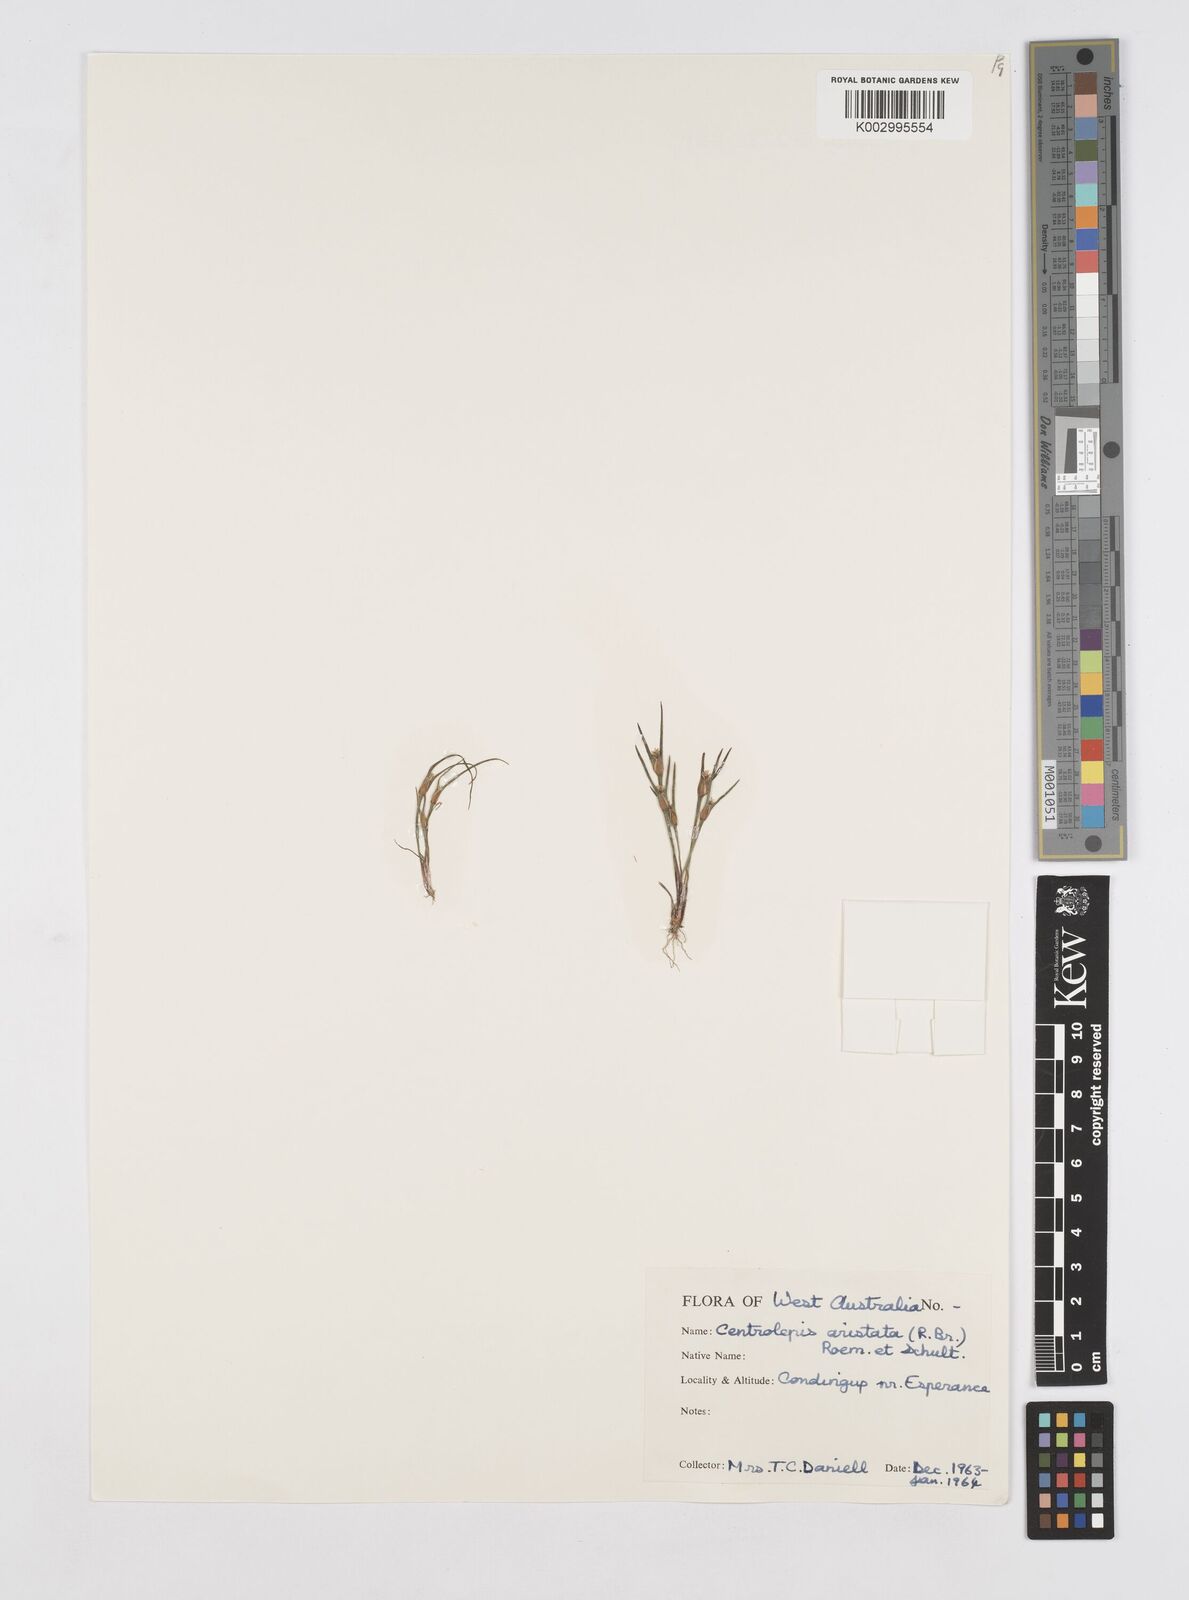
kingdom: Plantae
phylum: Tracheophyta
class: Liliopsida
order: Poales
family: Restionaceae
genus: Centrolepis
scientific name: Centrolepis aristata
